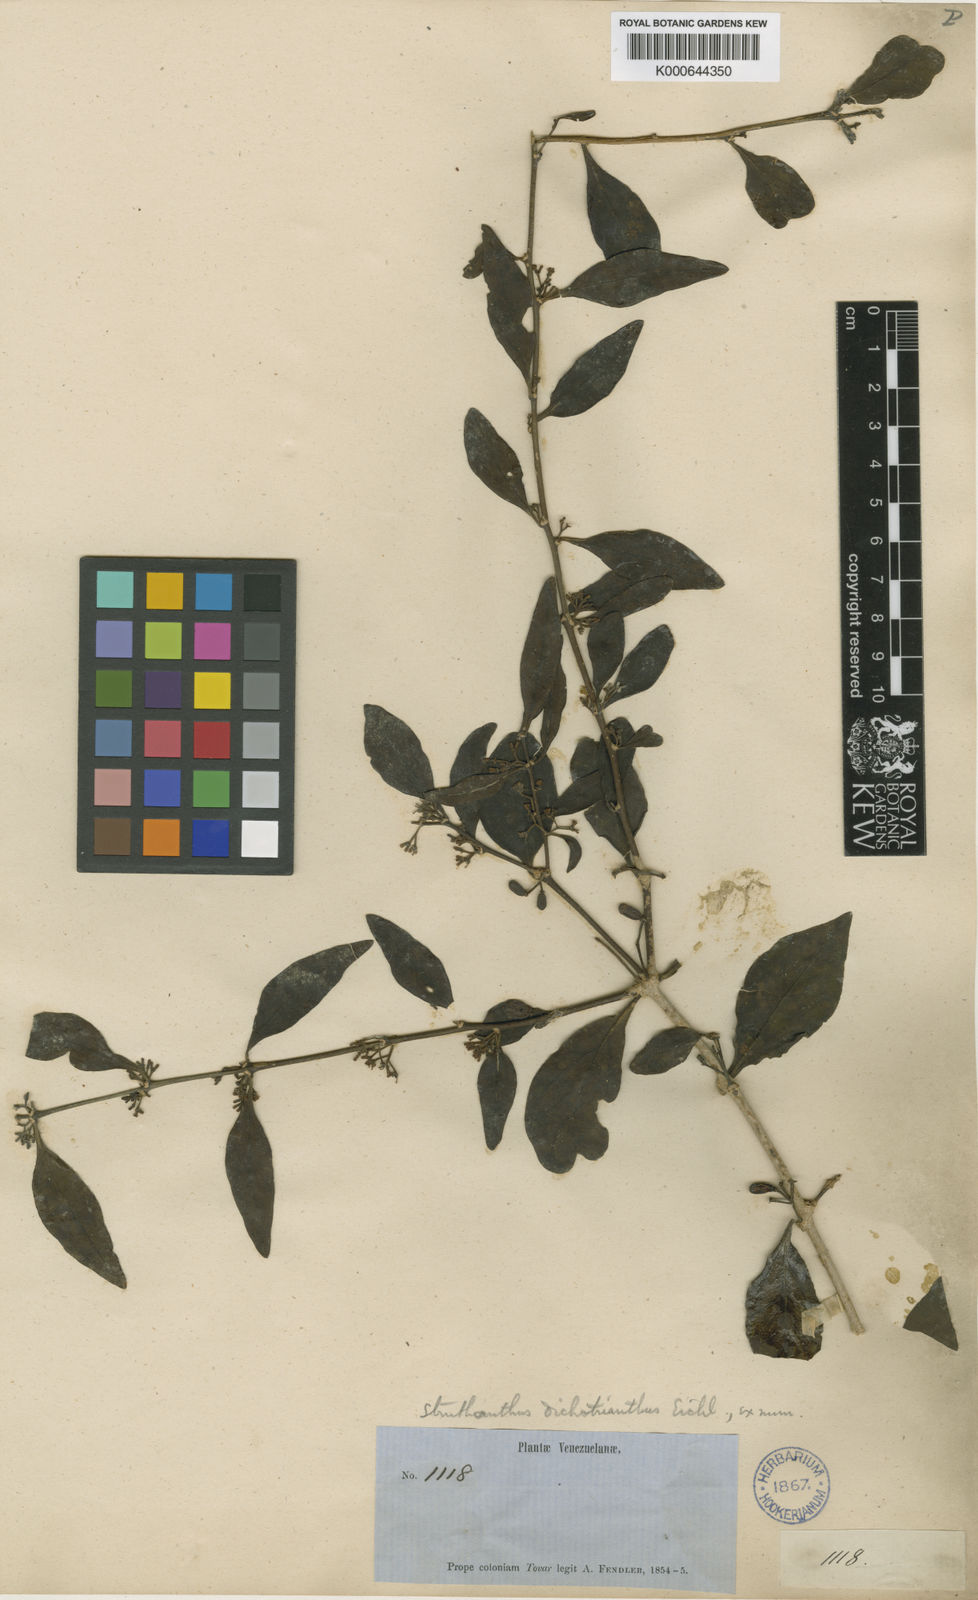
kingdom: Plantae
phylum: Tracheophyta
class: Magnoliopsida
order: Santalales
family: Loranthaceae
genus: Struthanthus
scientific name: Struthanthus phillyreoides
